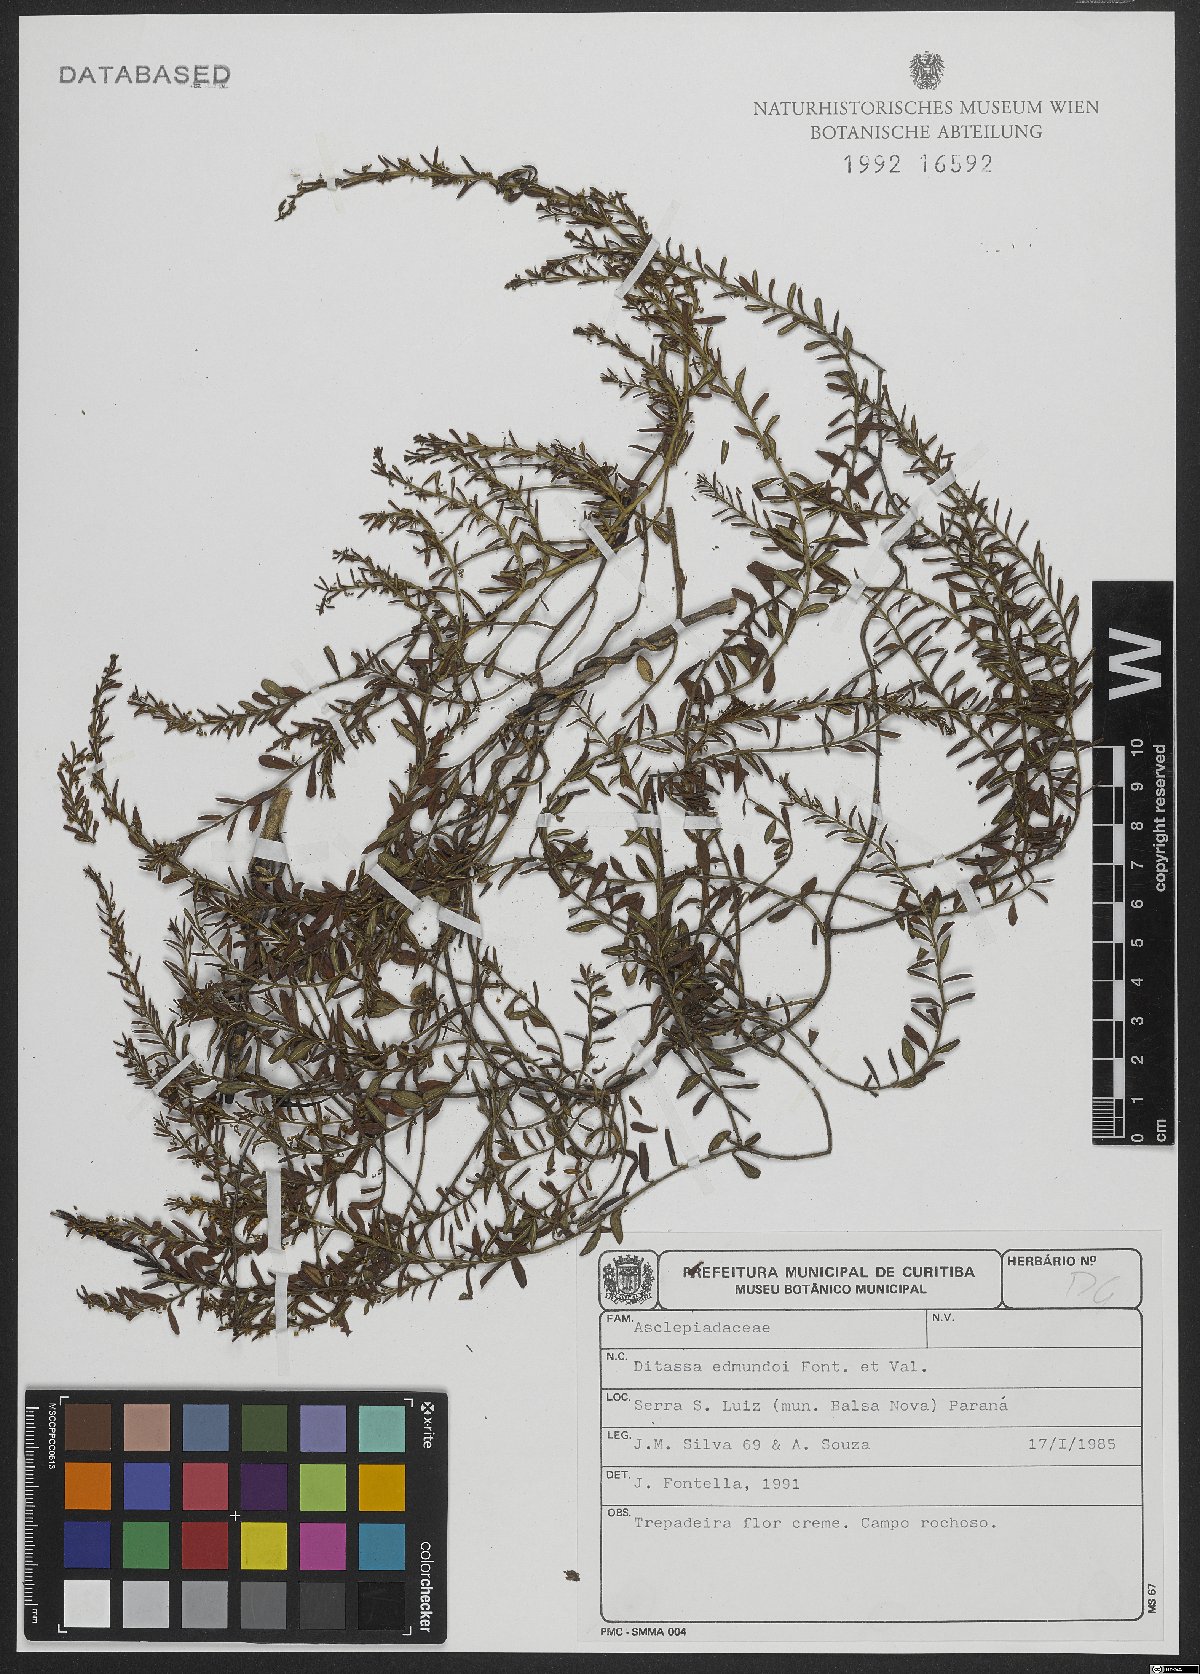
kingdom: Plantae
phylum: Tracheophyta
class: Magnoliopsida
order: Gentianales
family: Apocynaceae
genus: Ditassa
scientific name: Ditassa edmundoi
